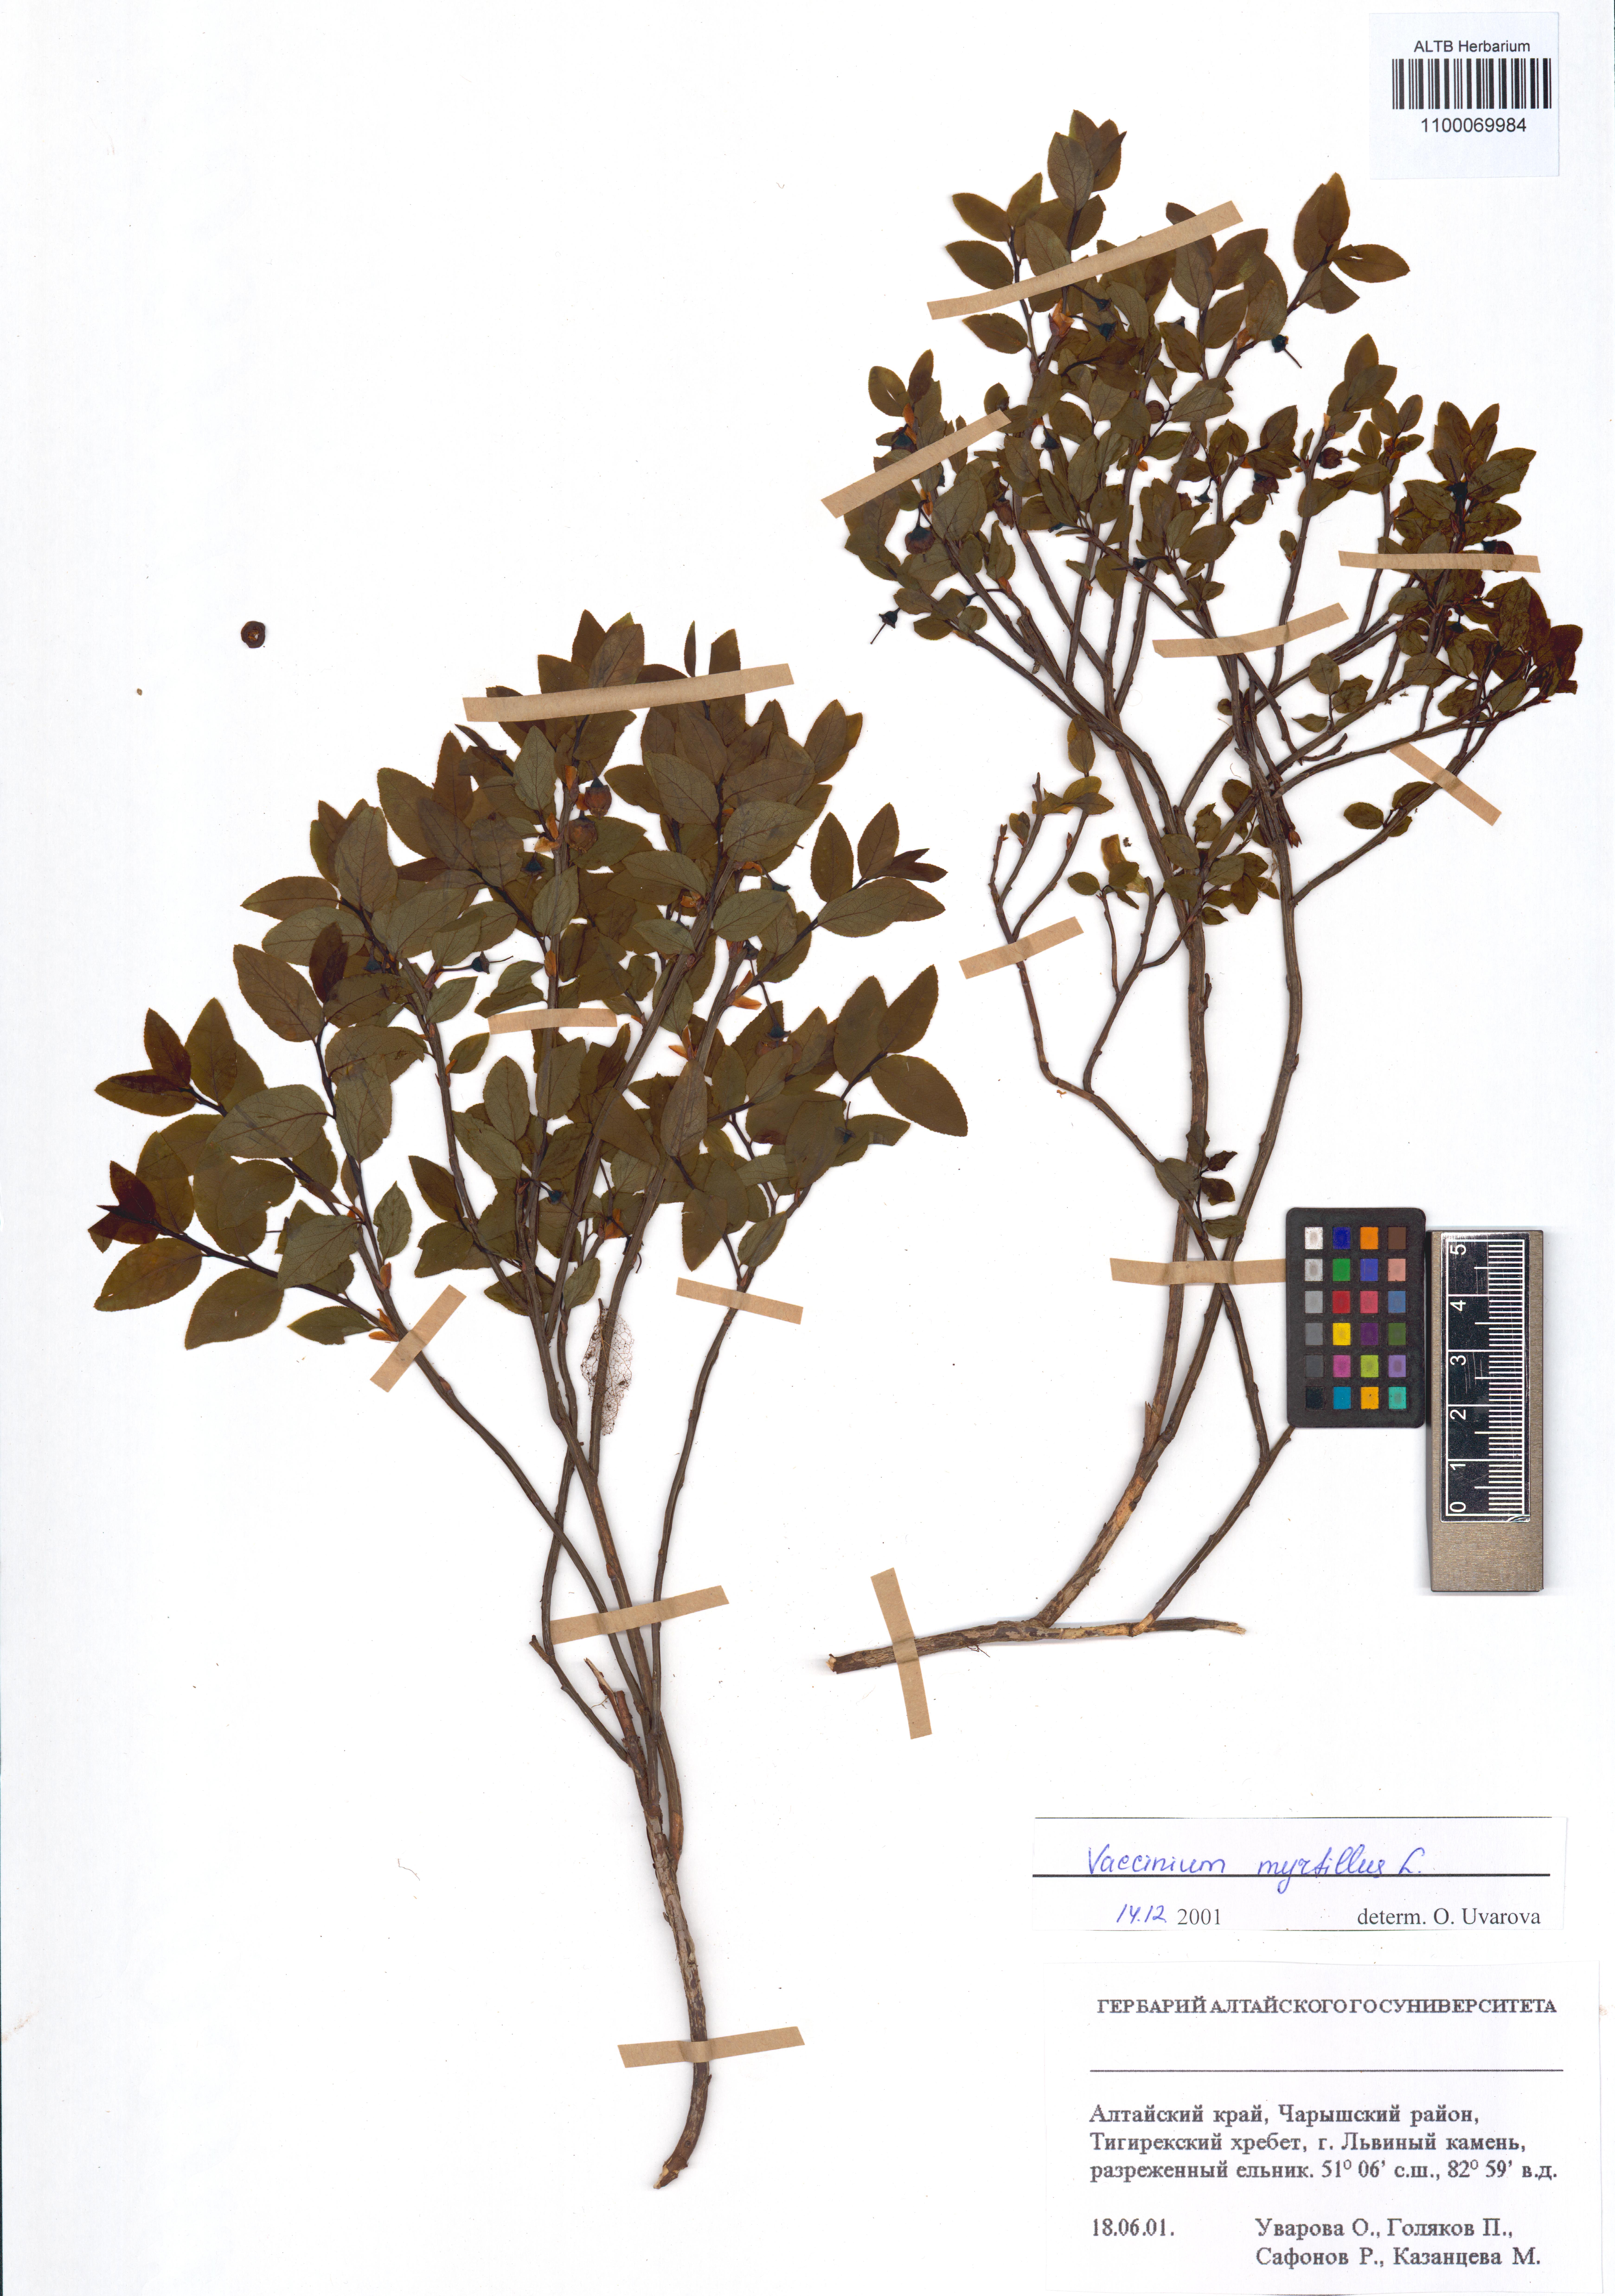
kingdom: Plantae
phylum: Tracheophyta
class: Magnoliopsida
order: Ericales
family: Ericaceae
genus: Vaccinium
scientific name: Vaccinium myrtillus
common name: Bilberry
